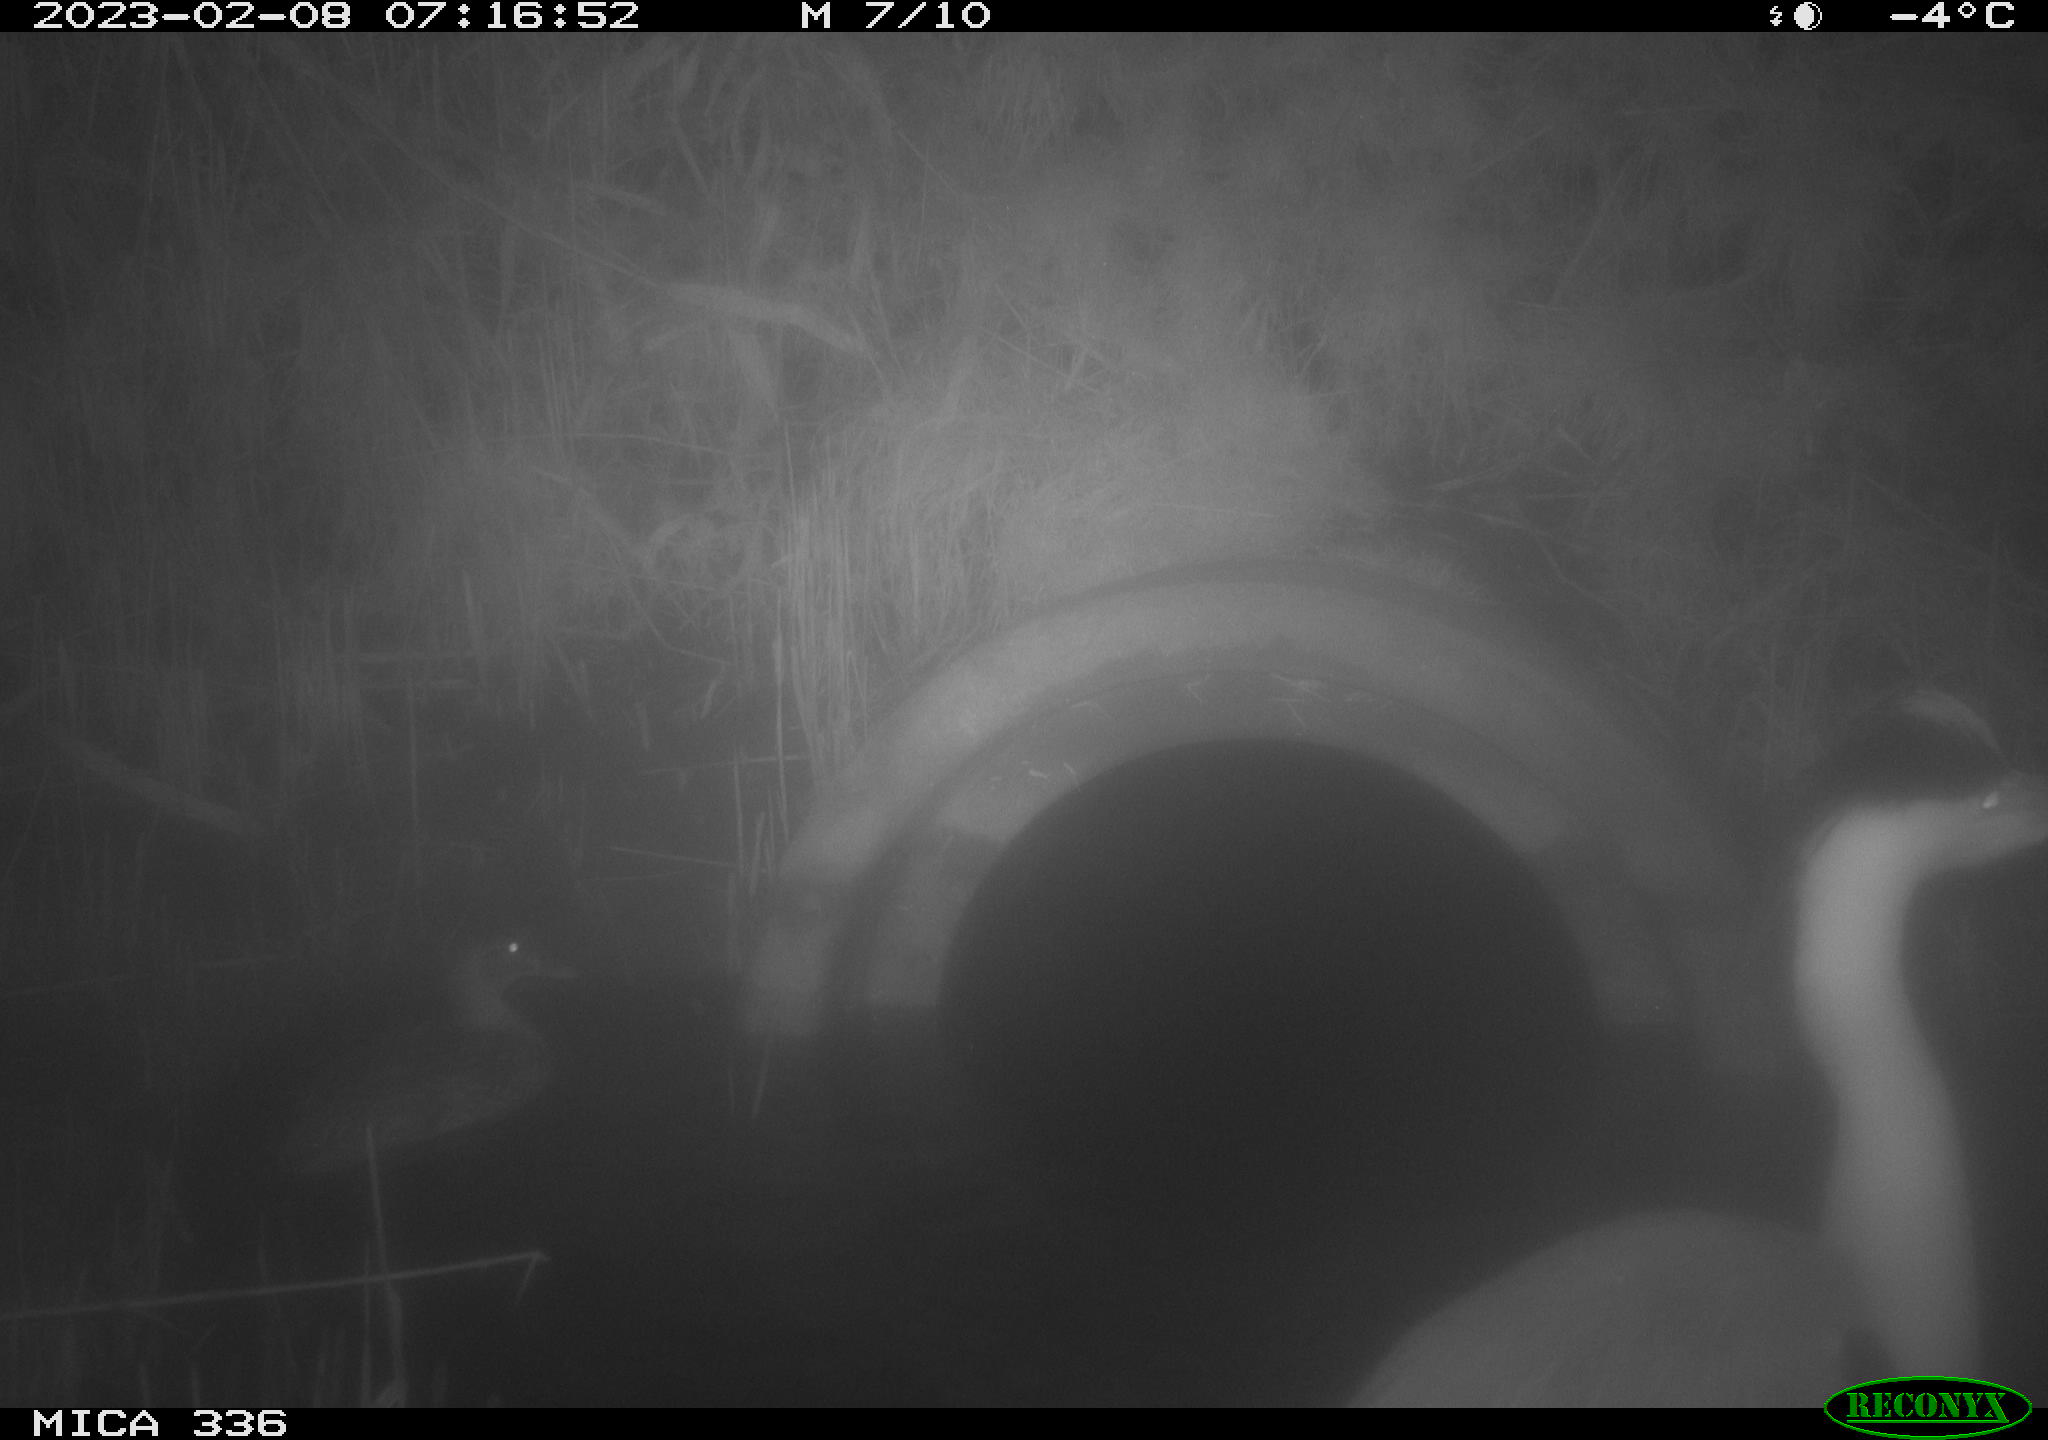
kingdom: Animalia
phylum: Chordata
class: Aves
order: Pelecaniformes
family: Ardeidae
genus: Ardea
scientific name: Ardea cinerea
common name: Grey heron
